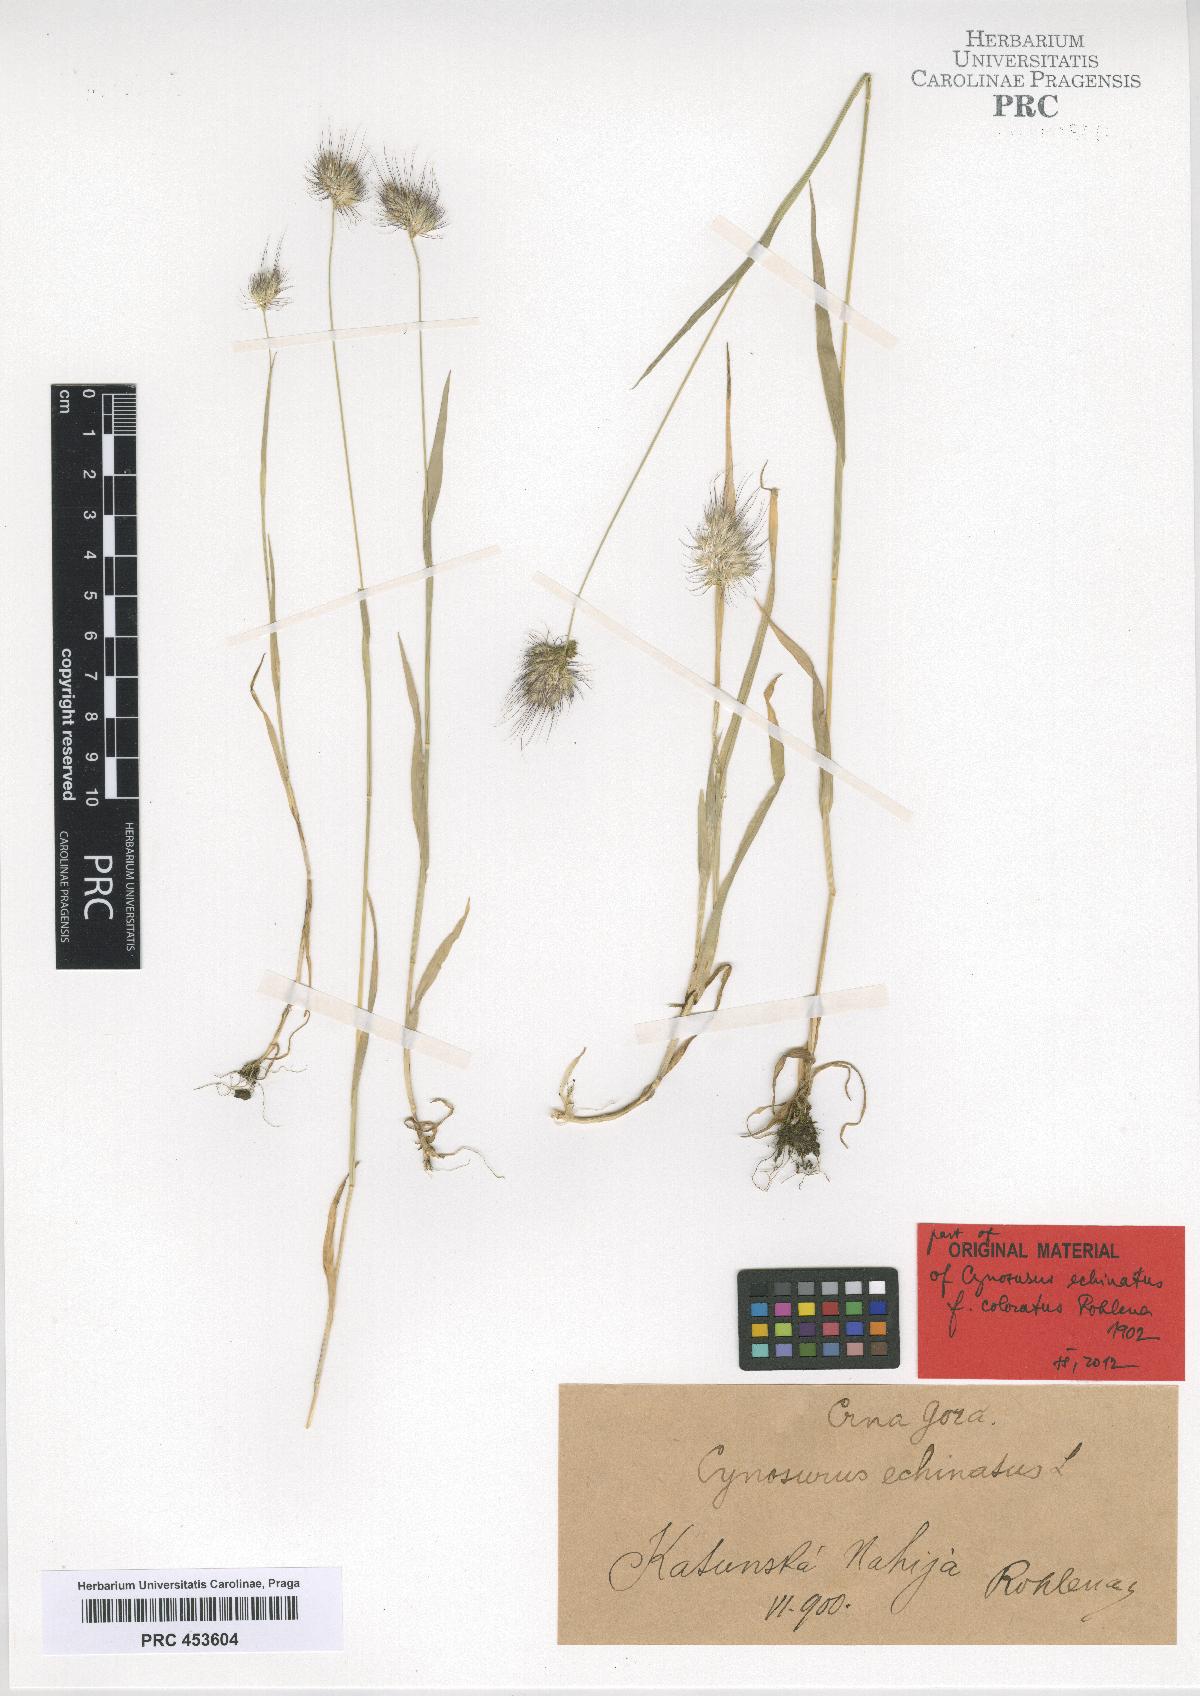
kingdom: Plantae
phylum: Tracheophyta
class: Liliopsida
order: Poales
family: Poaceae
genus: Cynosurus
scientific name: Cynosurus echinatus
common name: Rough dog's-tail
